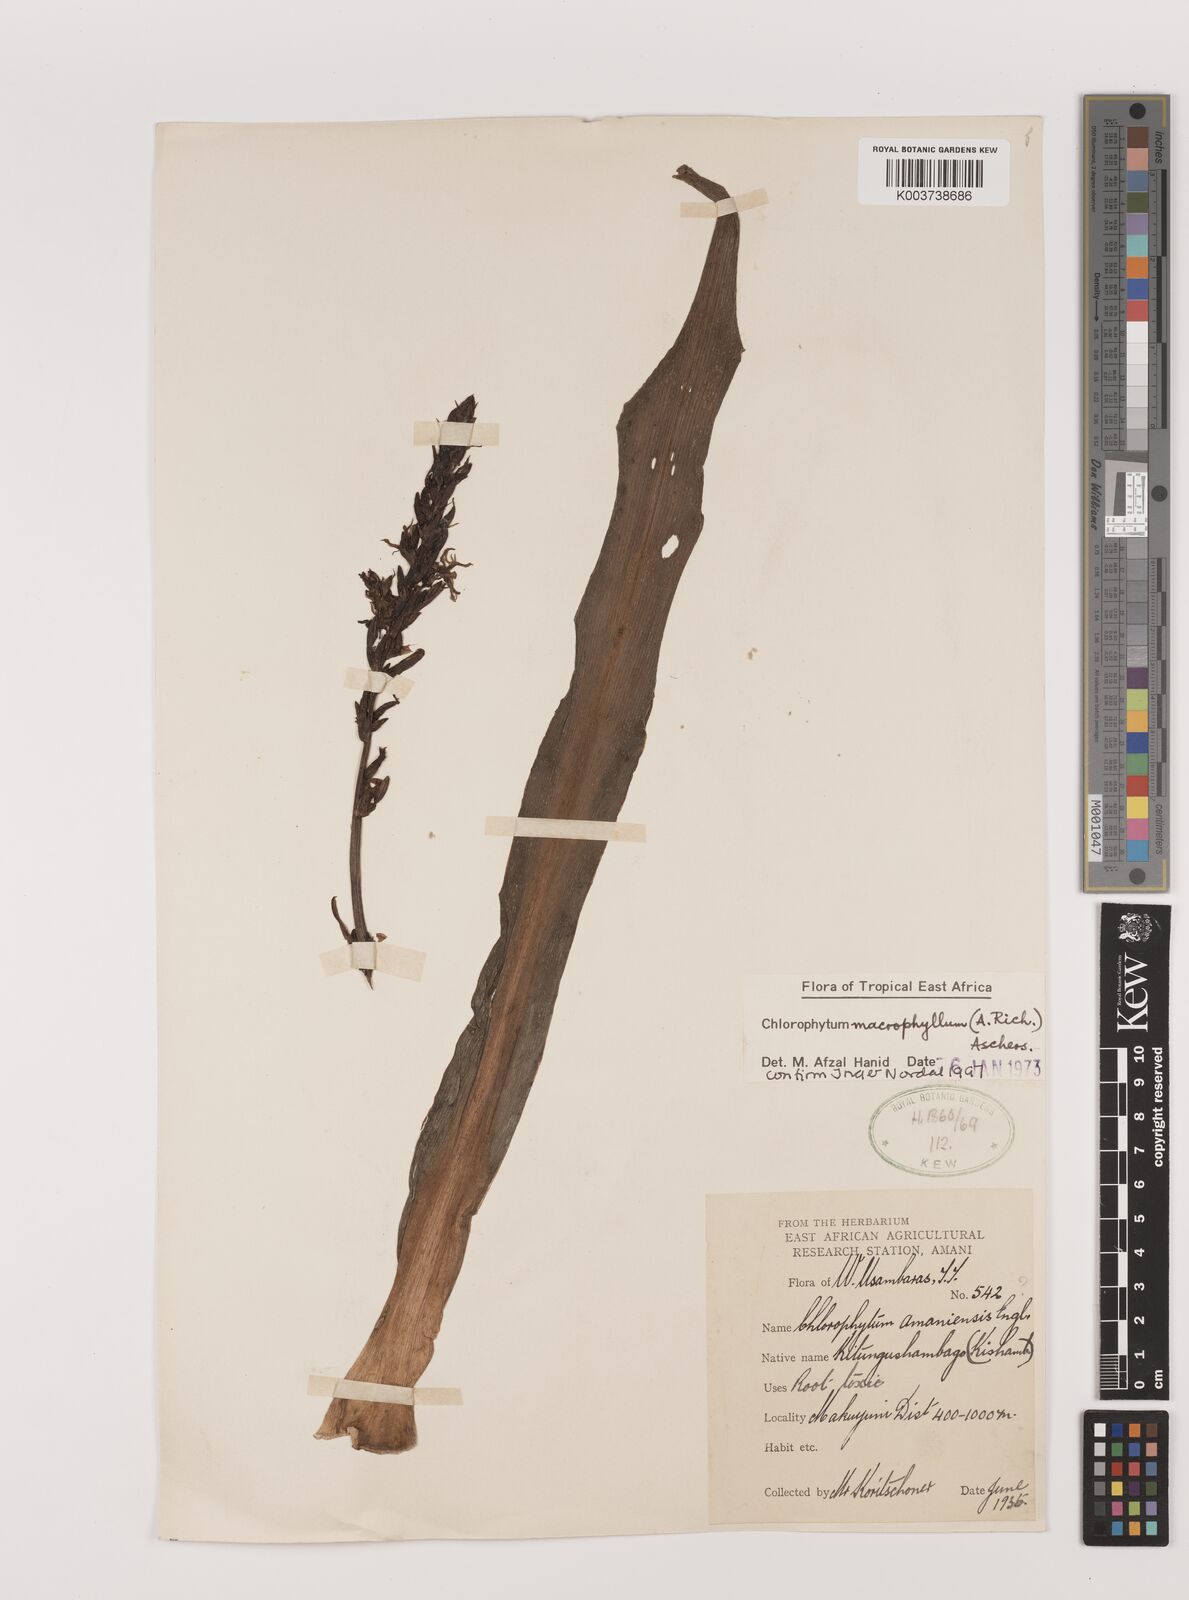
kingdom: Plantae
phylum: Tracheophyta
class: Liliopsida
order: Asparagales
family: Asparagaceae
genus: Chlorophytum
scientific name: Chlorophytum macrophyllum
